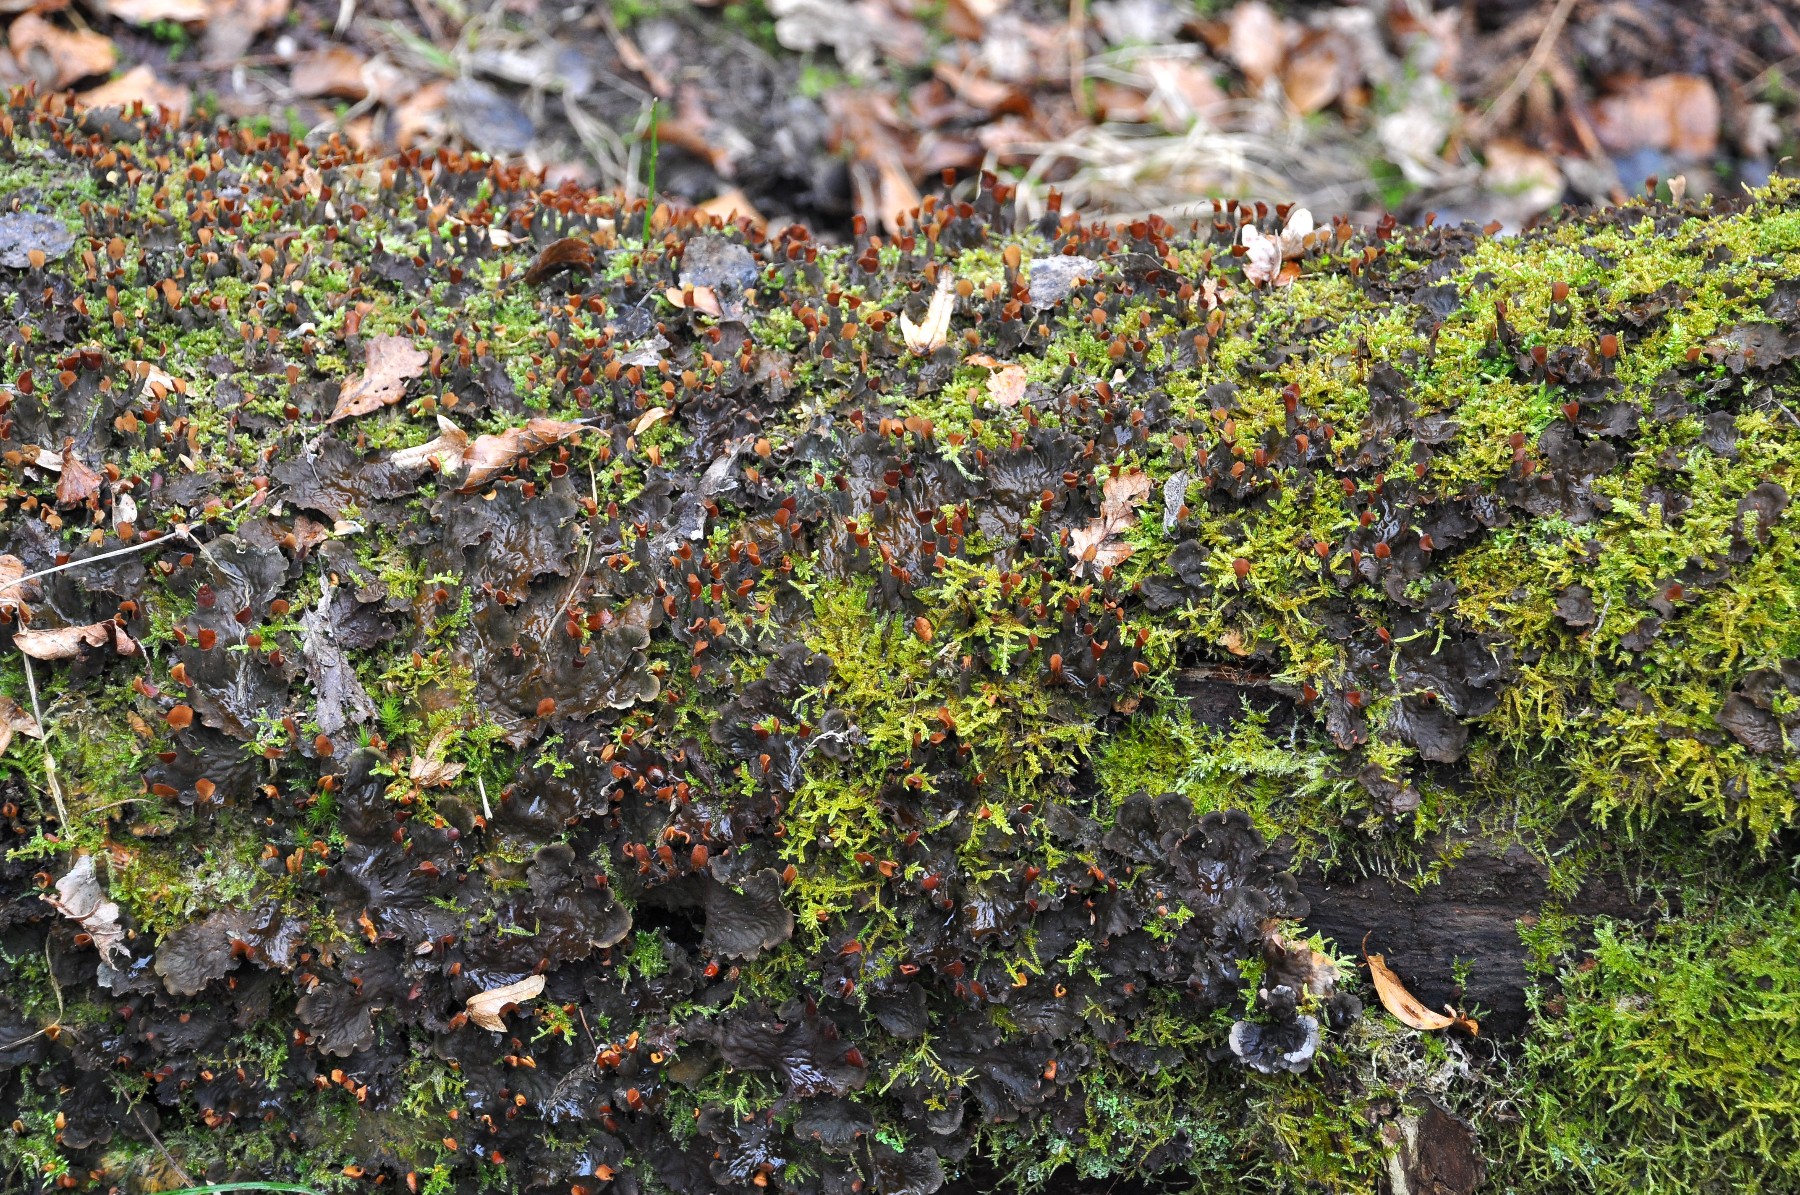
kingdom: Fungi
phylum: Ascomycota
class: Lecanoromycetes
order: Peltigerales
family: Peltigeraceae
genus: Peltigera
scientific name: Peltigera praetextata
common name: kruset skjoldlav
